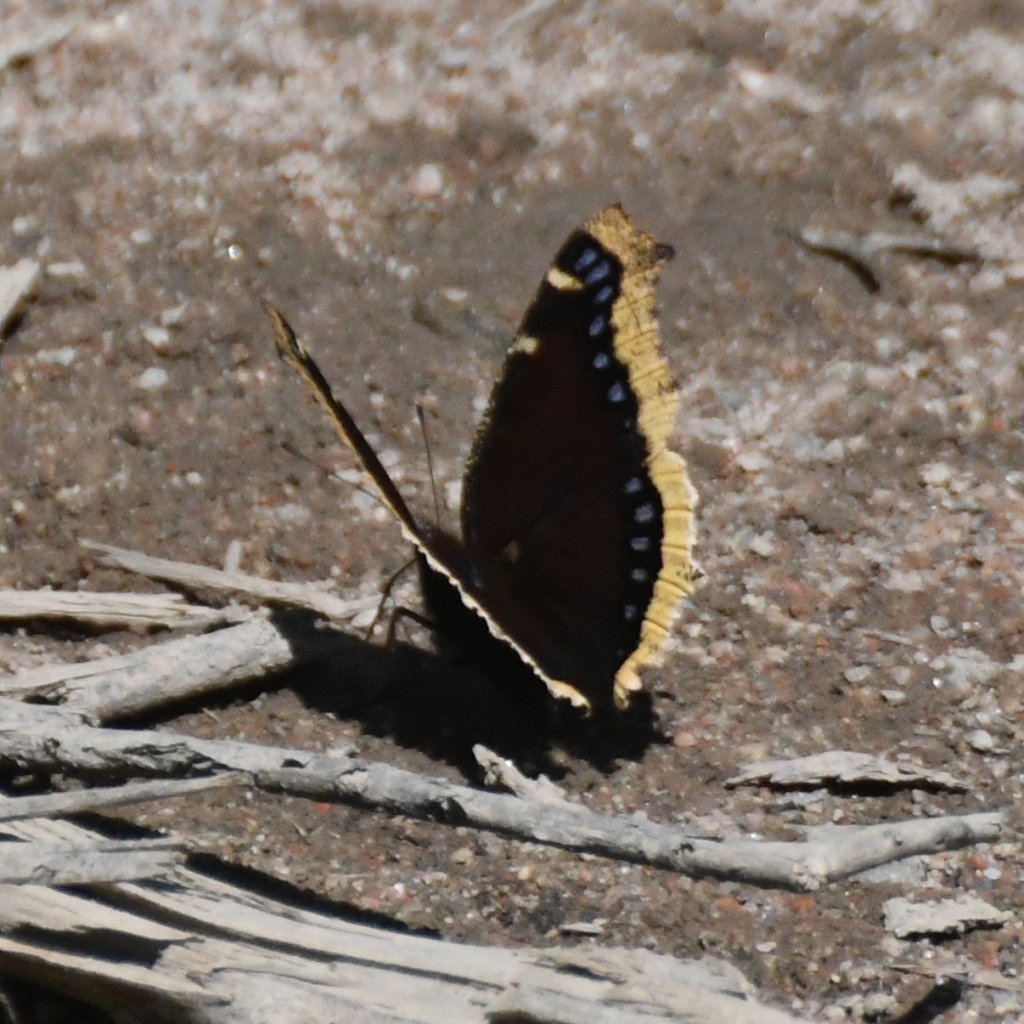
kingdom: Animalia
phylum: Arthropoda
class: Insecta
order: Lepidoptera
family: Nymphalidae
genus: Nymphalis
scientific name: Nymphalis antiopa
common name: Mourning Cloak
